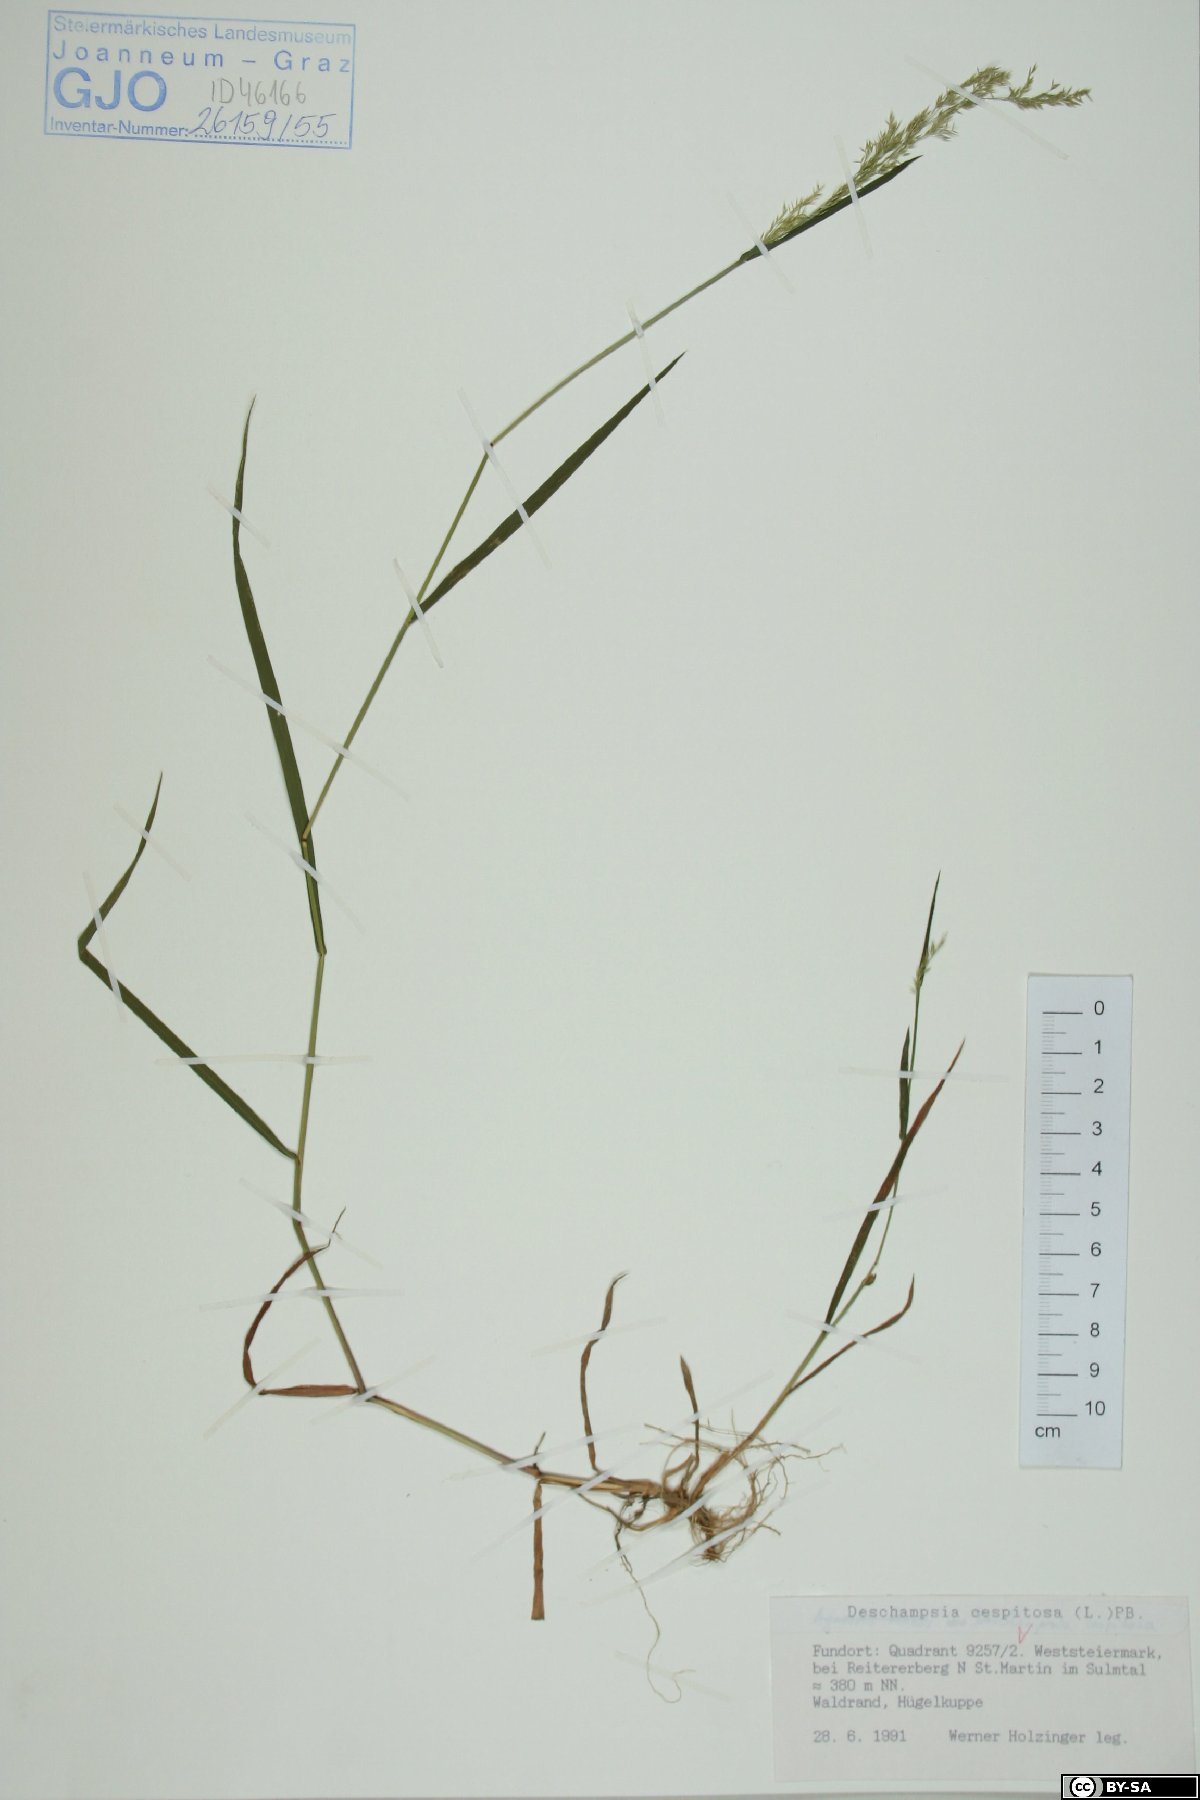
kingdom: Plantae
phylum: Tracheophyta
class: Liliopsida
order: Poales
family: Poaceae
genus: Deschampsia
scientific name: Deschampsia cespitosa
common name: Tufted hair-grass
